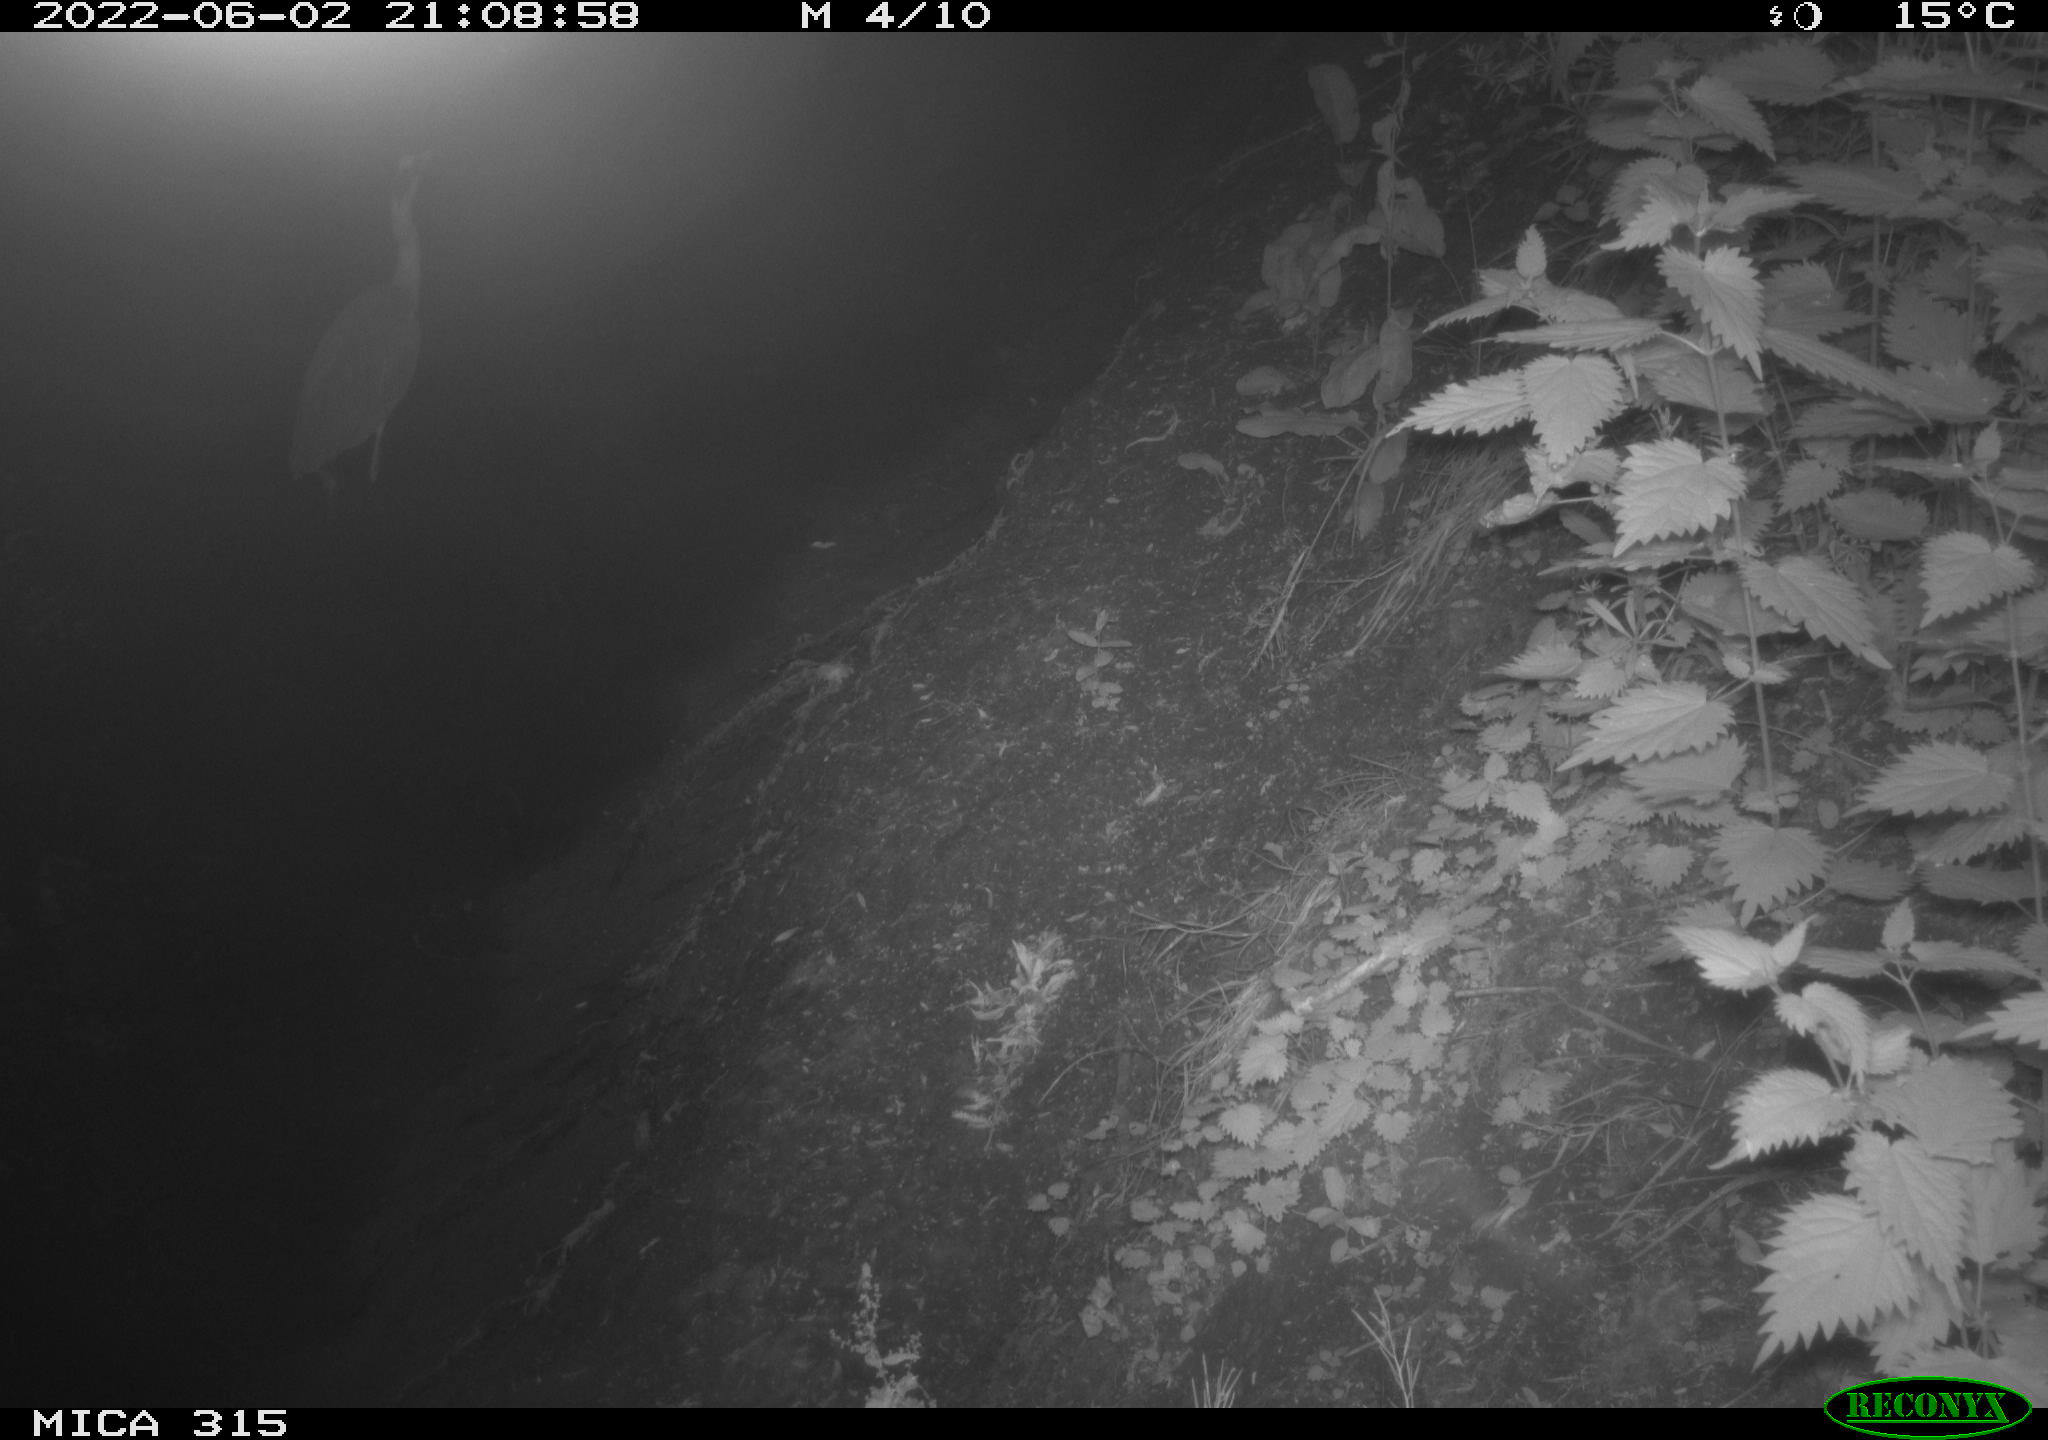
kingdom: Animalia
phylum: Chordata
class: Aves
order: Pelecaniformes
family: Ardeidae
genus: Ardea
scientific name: Ardea cinerea
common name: Grey heron
